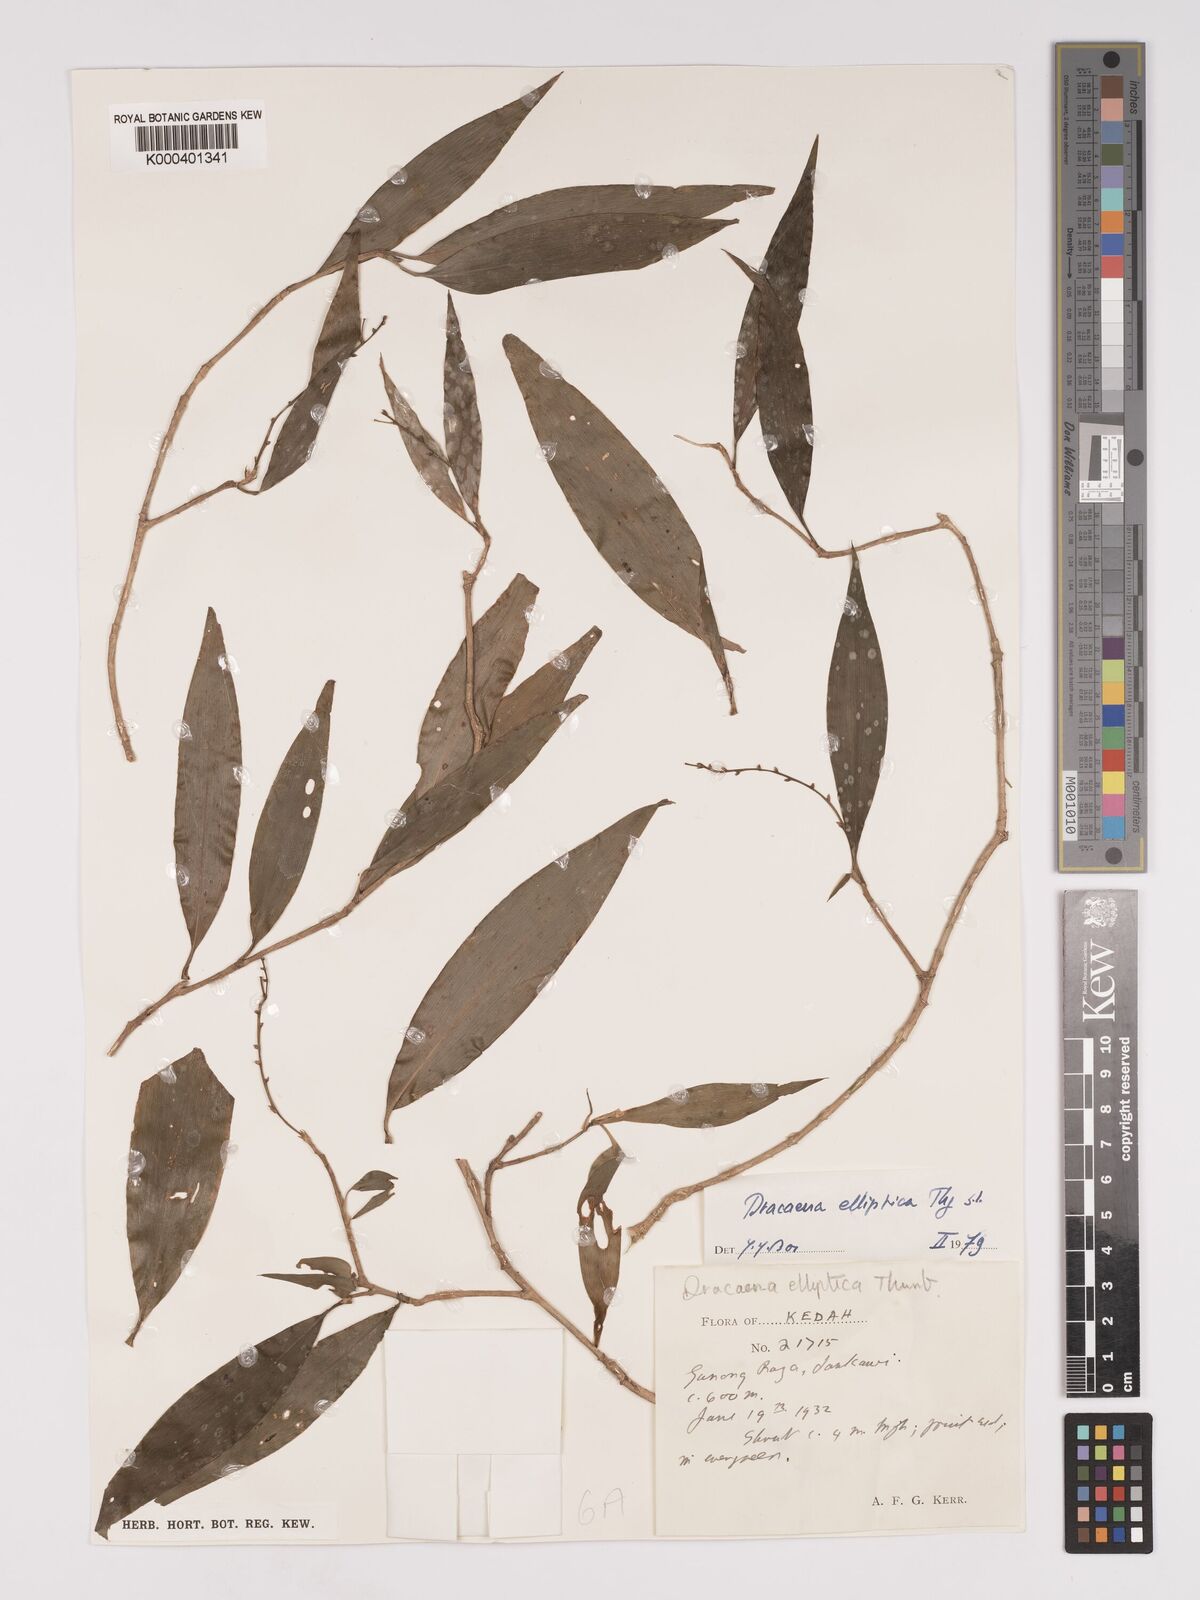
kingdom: Plantae
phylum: Tracheophyta
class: Liliopsida
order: Asparagales
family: Asparagaceae
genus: Dracaena
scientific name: Dracaena elliptica
